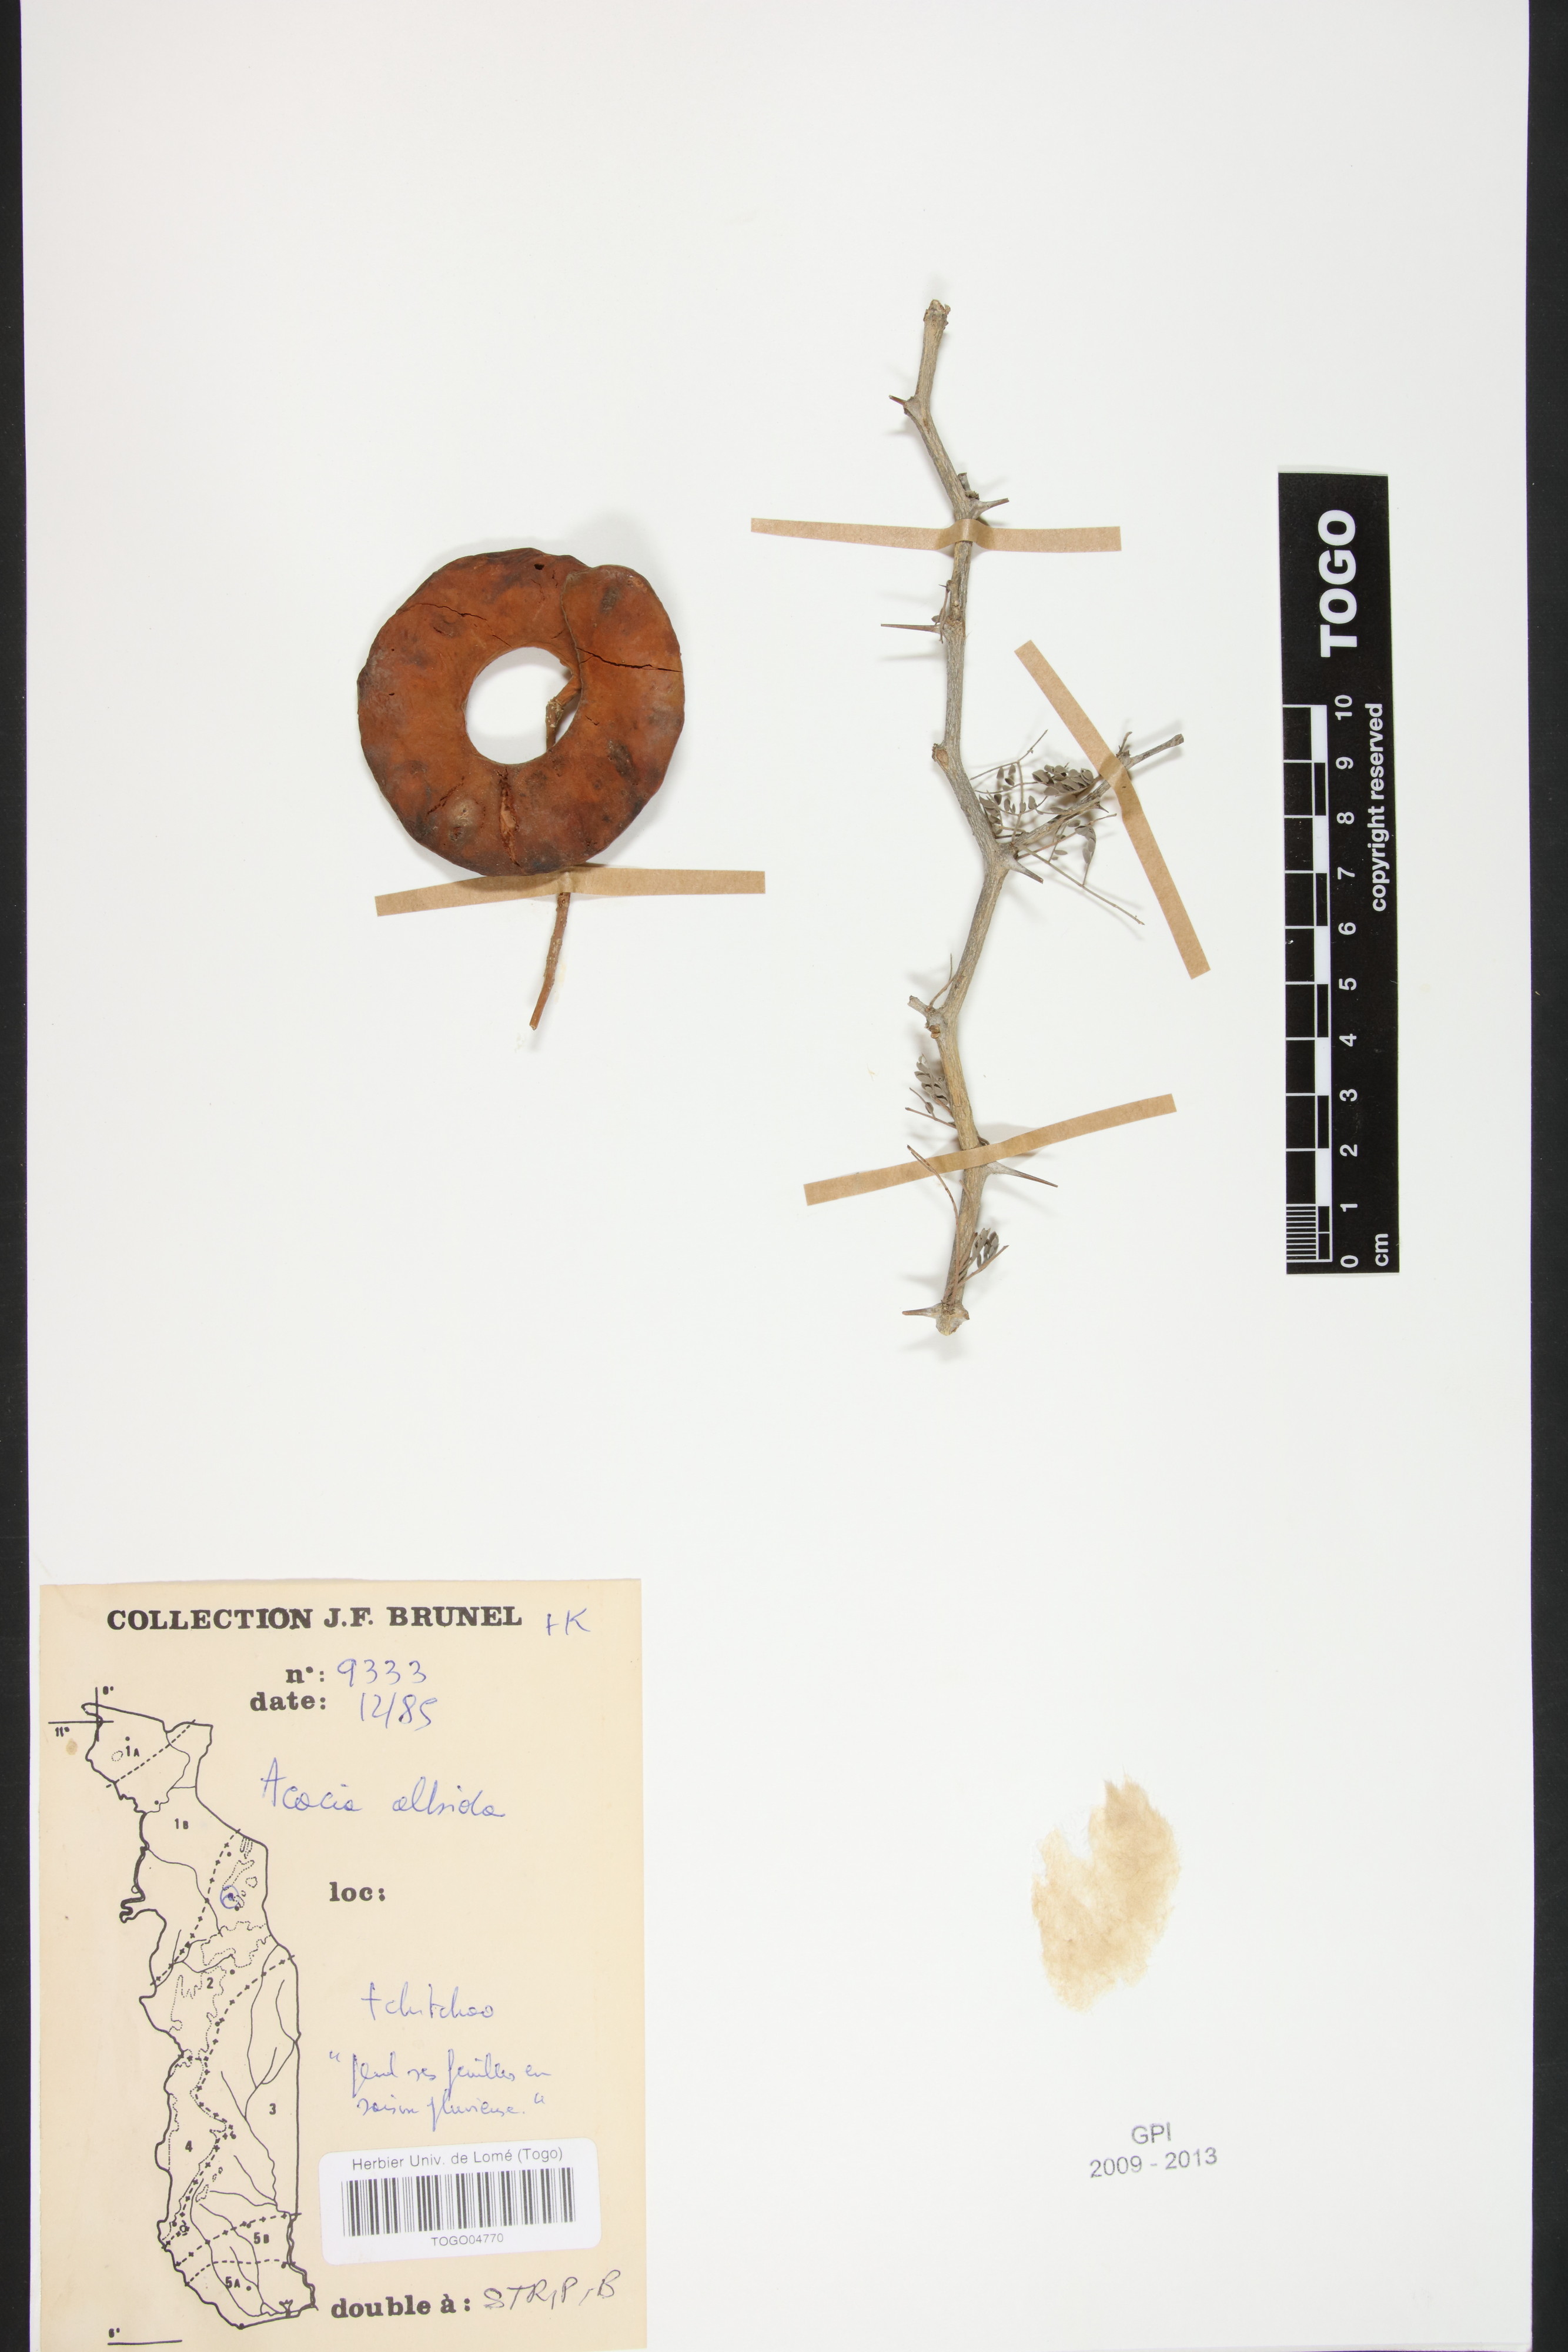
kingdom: Plantae
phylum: Tracheophyta
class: Magnoliopsida
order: Fabales
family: Fabaceae
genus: Faidherbia
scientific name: Faidherbia albida
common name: Anatree
